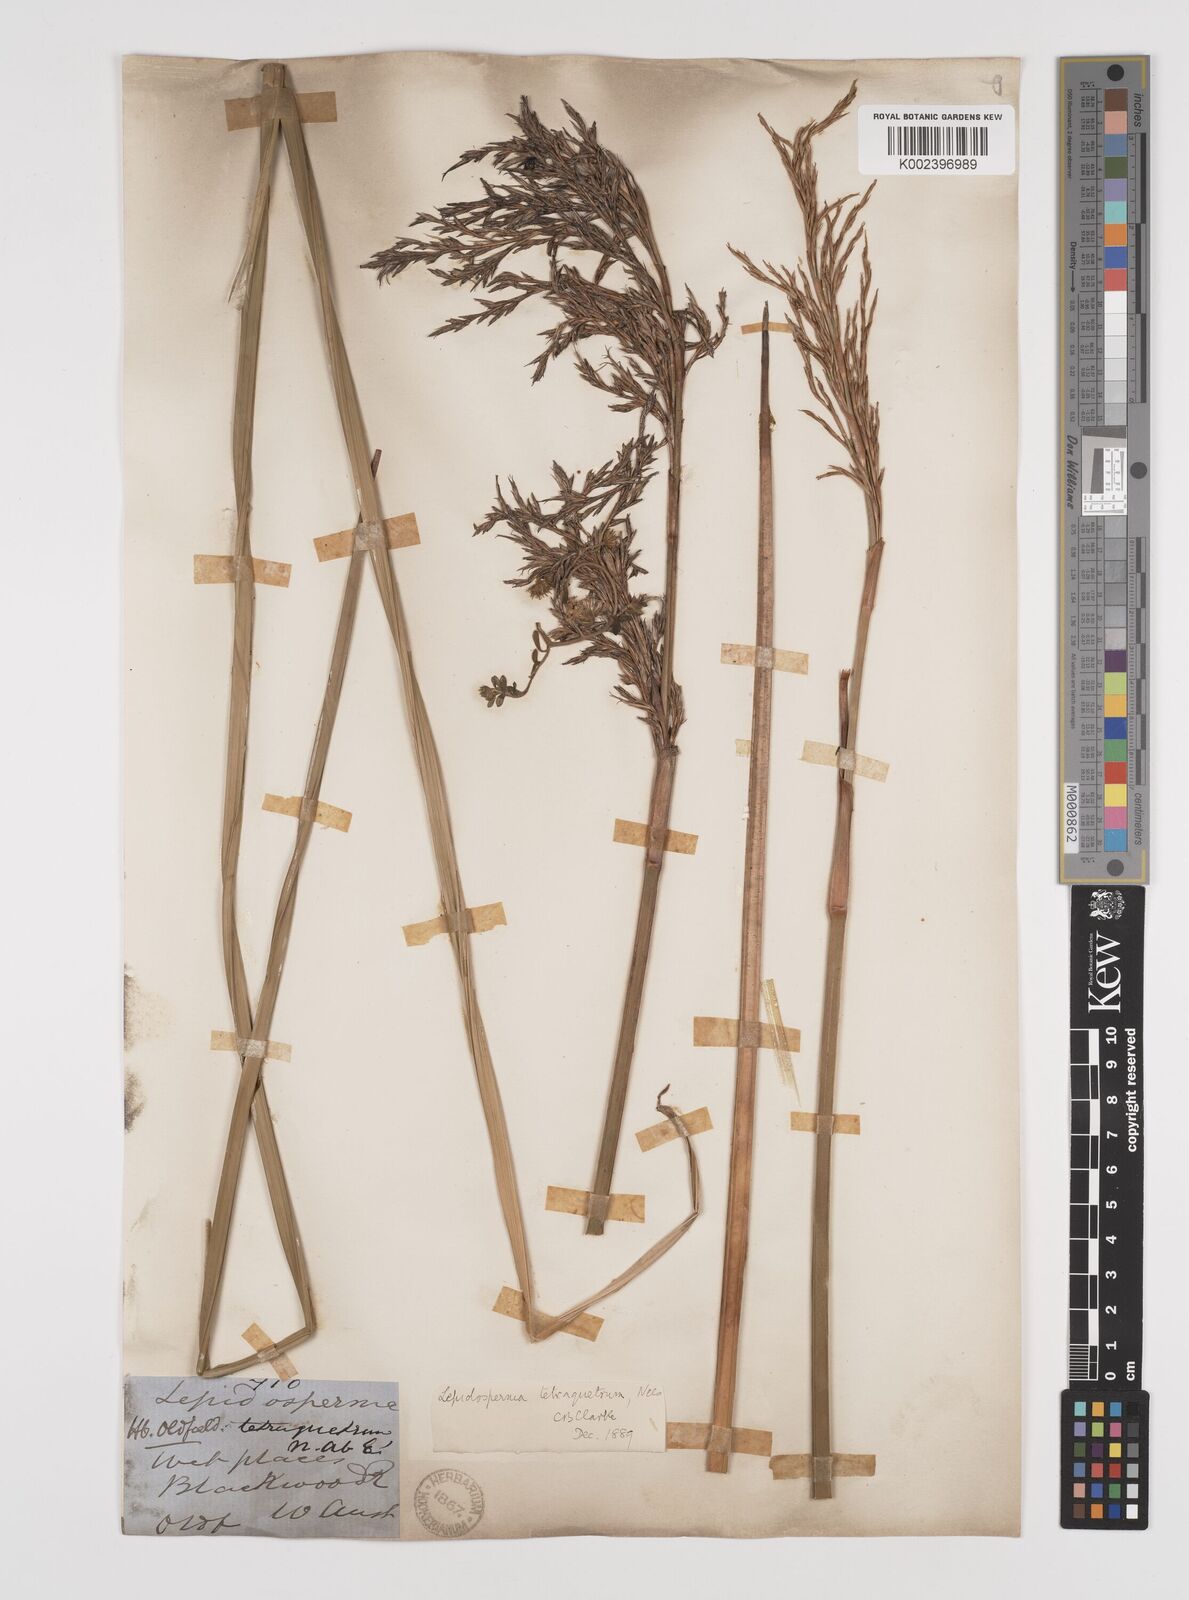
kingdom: Plantae
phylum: Tracheophyta
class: Liliopsida
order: Poales
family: Cyperaceae
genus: Lepidosperma
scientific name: Lepidosperma tetraquetrum
